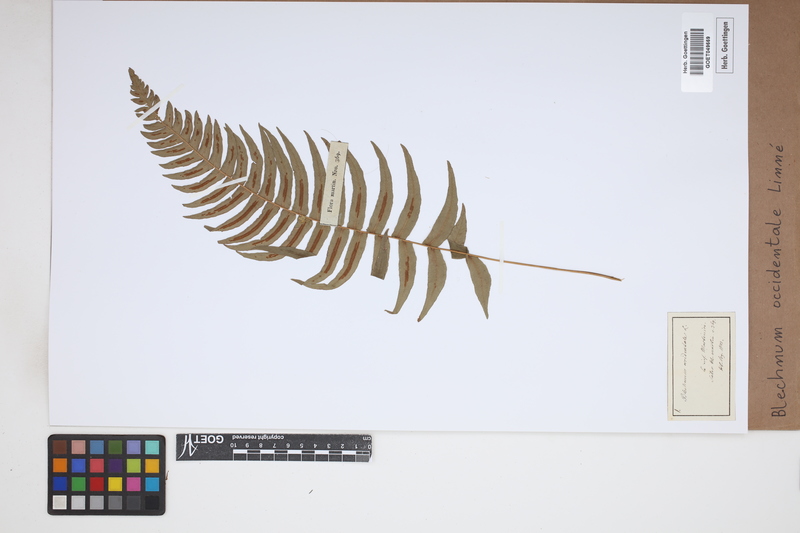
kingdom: Plantae
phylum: Tracheophyta
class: Polypodiopsida
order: Polypodiales
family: Blechnaceae
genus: Blechnum
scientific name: Blechnum occidentale
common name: Hammock fern
